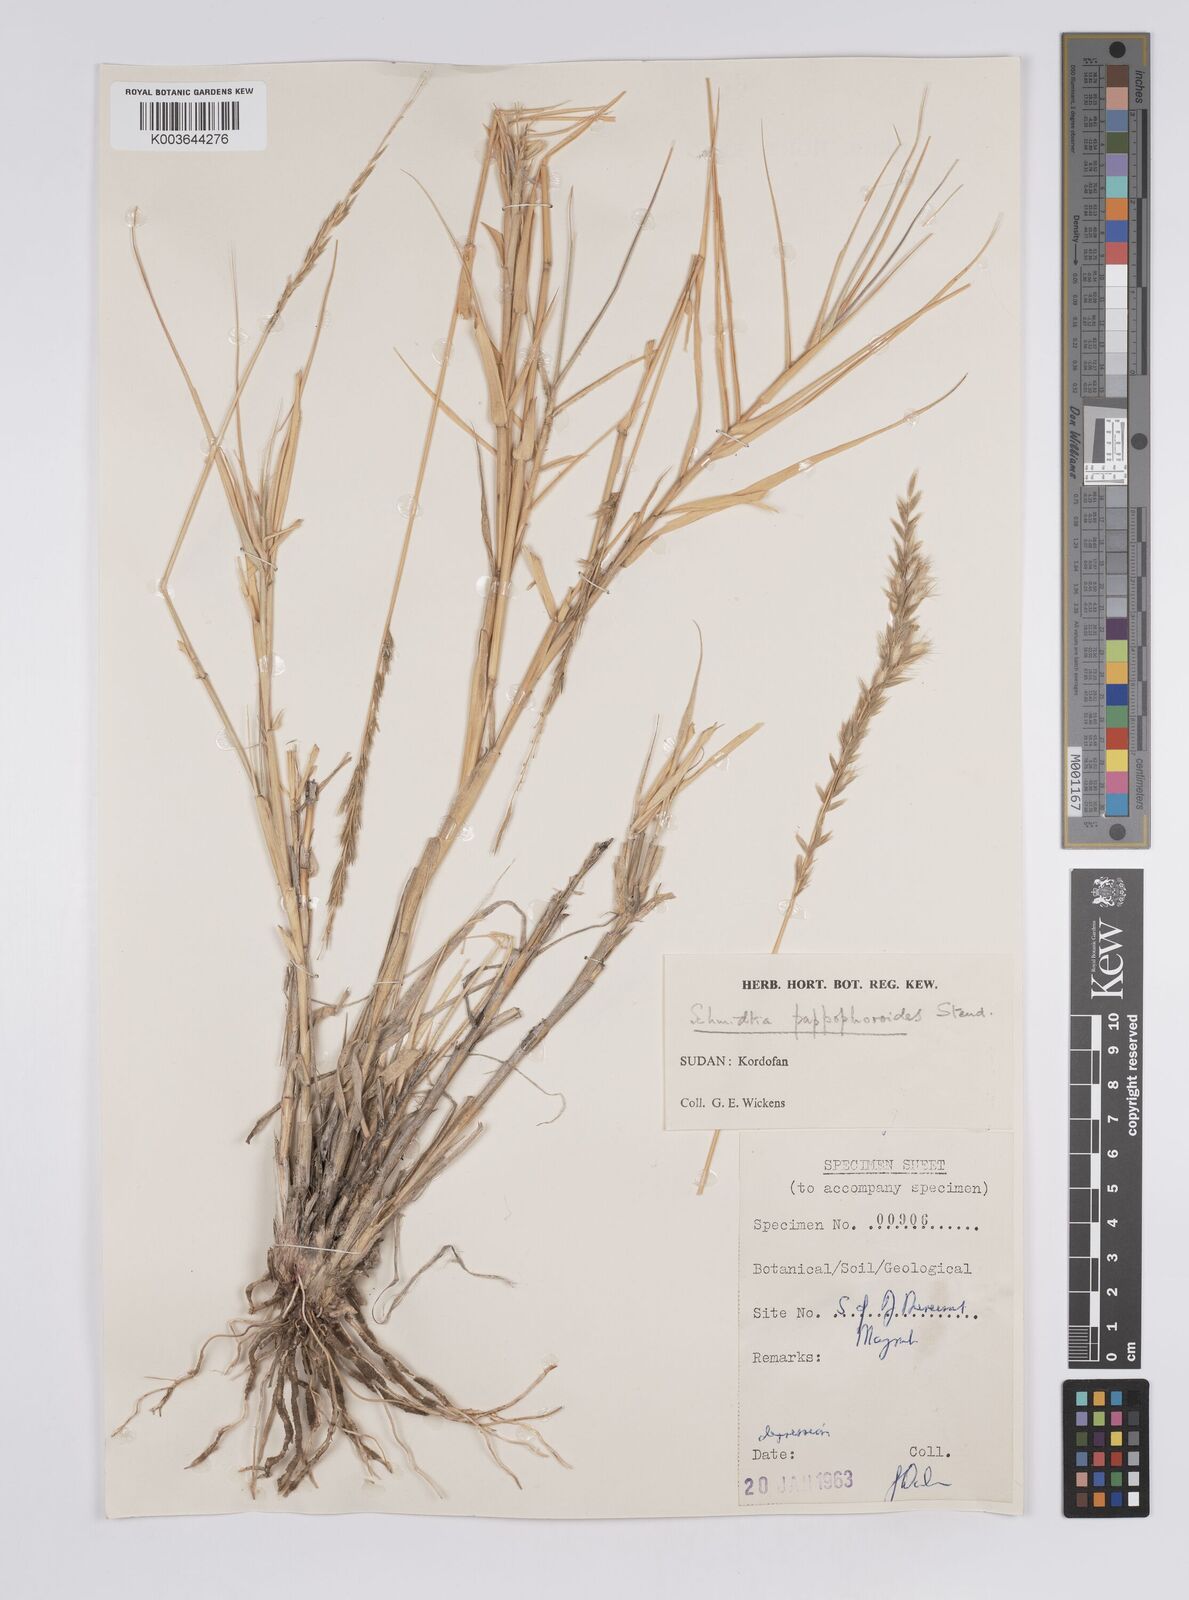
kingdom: Plantae
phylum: Tracheophyta
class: Liliopsida
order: Poales
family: Poaceae
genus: Schmidtia
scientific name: Schmidtia pappophoroides
